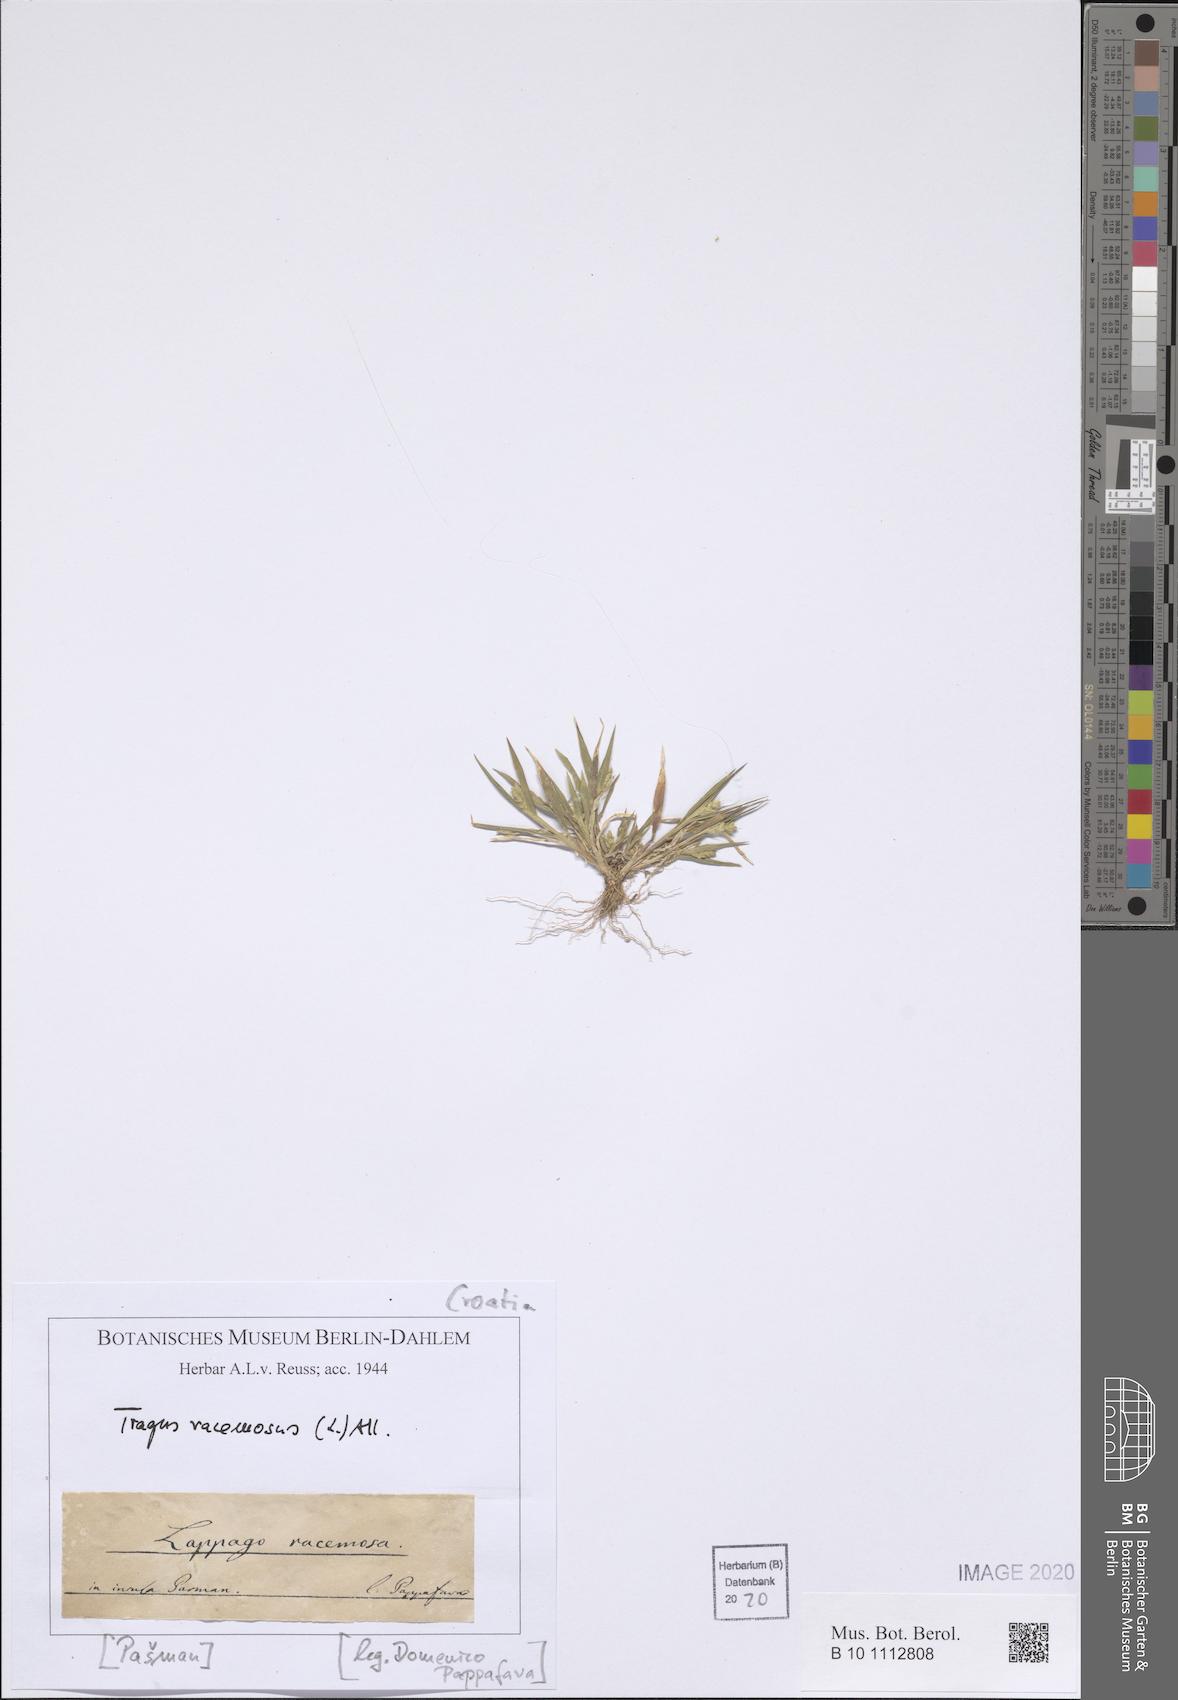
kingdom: Plantae
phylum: Tracheophyta
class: Liliopsida
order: Poales
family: Poaceae
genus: Tragus
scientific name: Tragus racemosus
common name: European bur-grass
